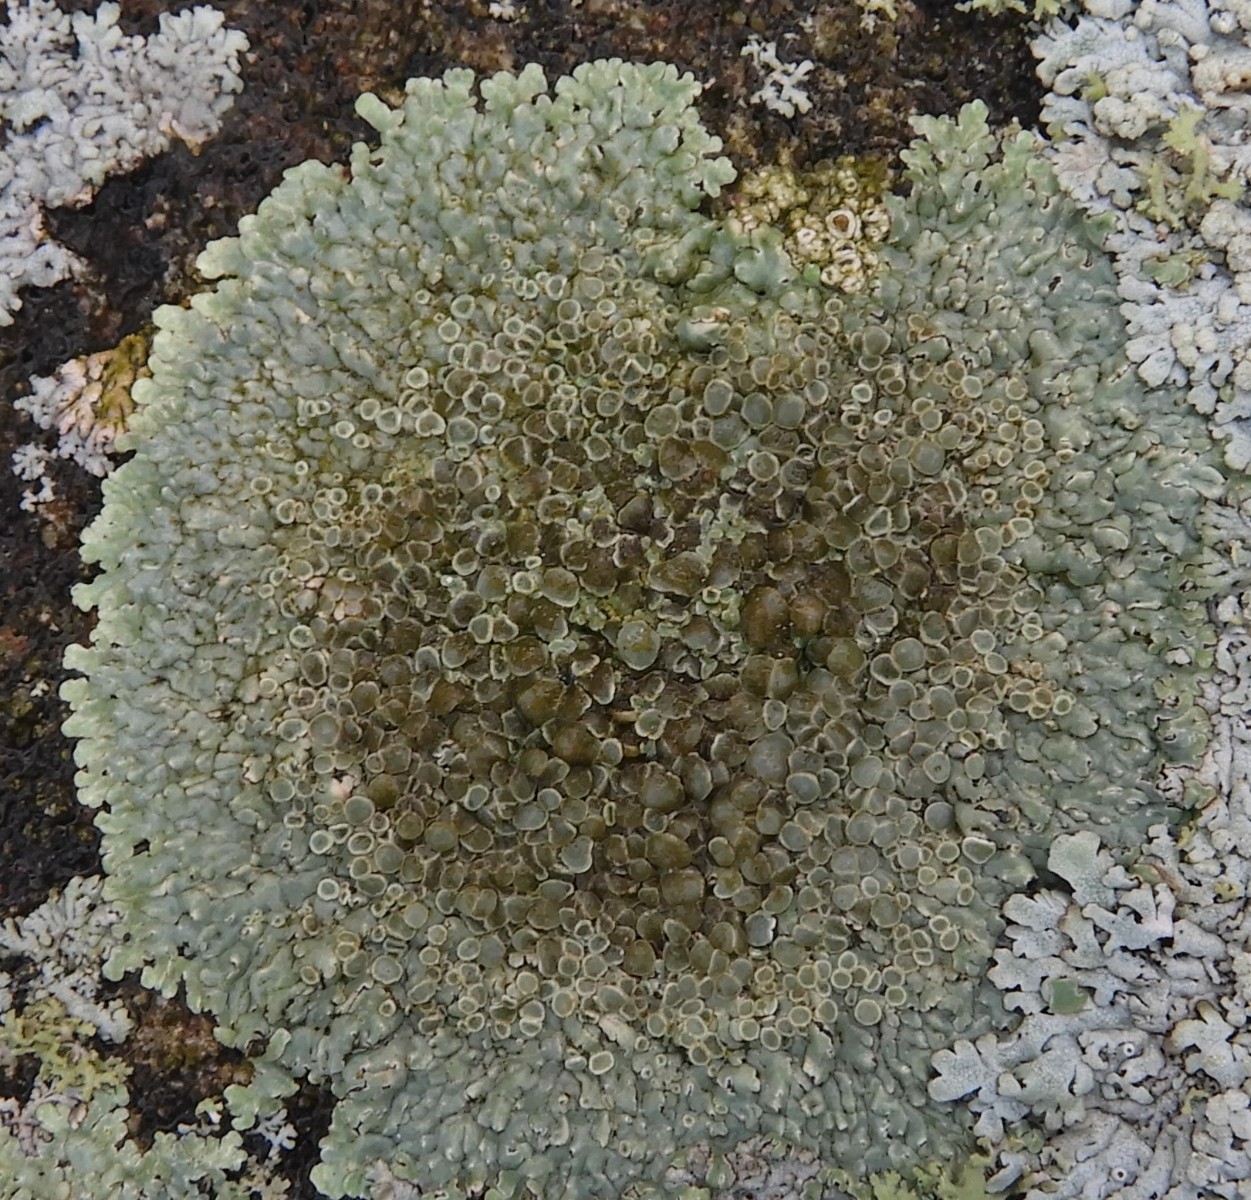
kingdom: Fungi
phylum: Ascomycota
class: Lecanoromycetes
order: Lecanorales
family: Lecanoraceae
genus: Protoparmeliopsis
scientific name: Protoparmeliopsis muralis
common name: randfliget kantskivelav
